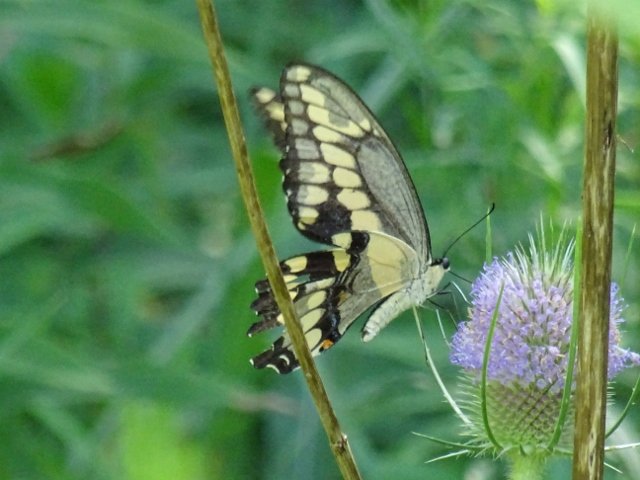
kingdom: Animalia
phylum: Arthropoda
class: Insecta
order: Lepidoptera
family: Papilionidae
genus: Papilio
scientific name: Papilio cresphontes
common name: Eastern Giant Swallowtail
